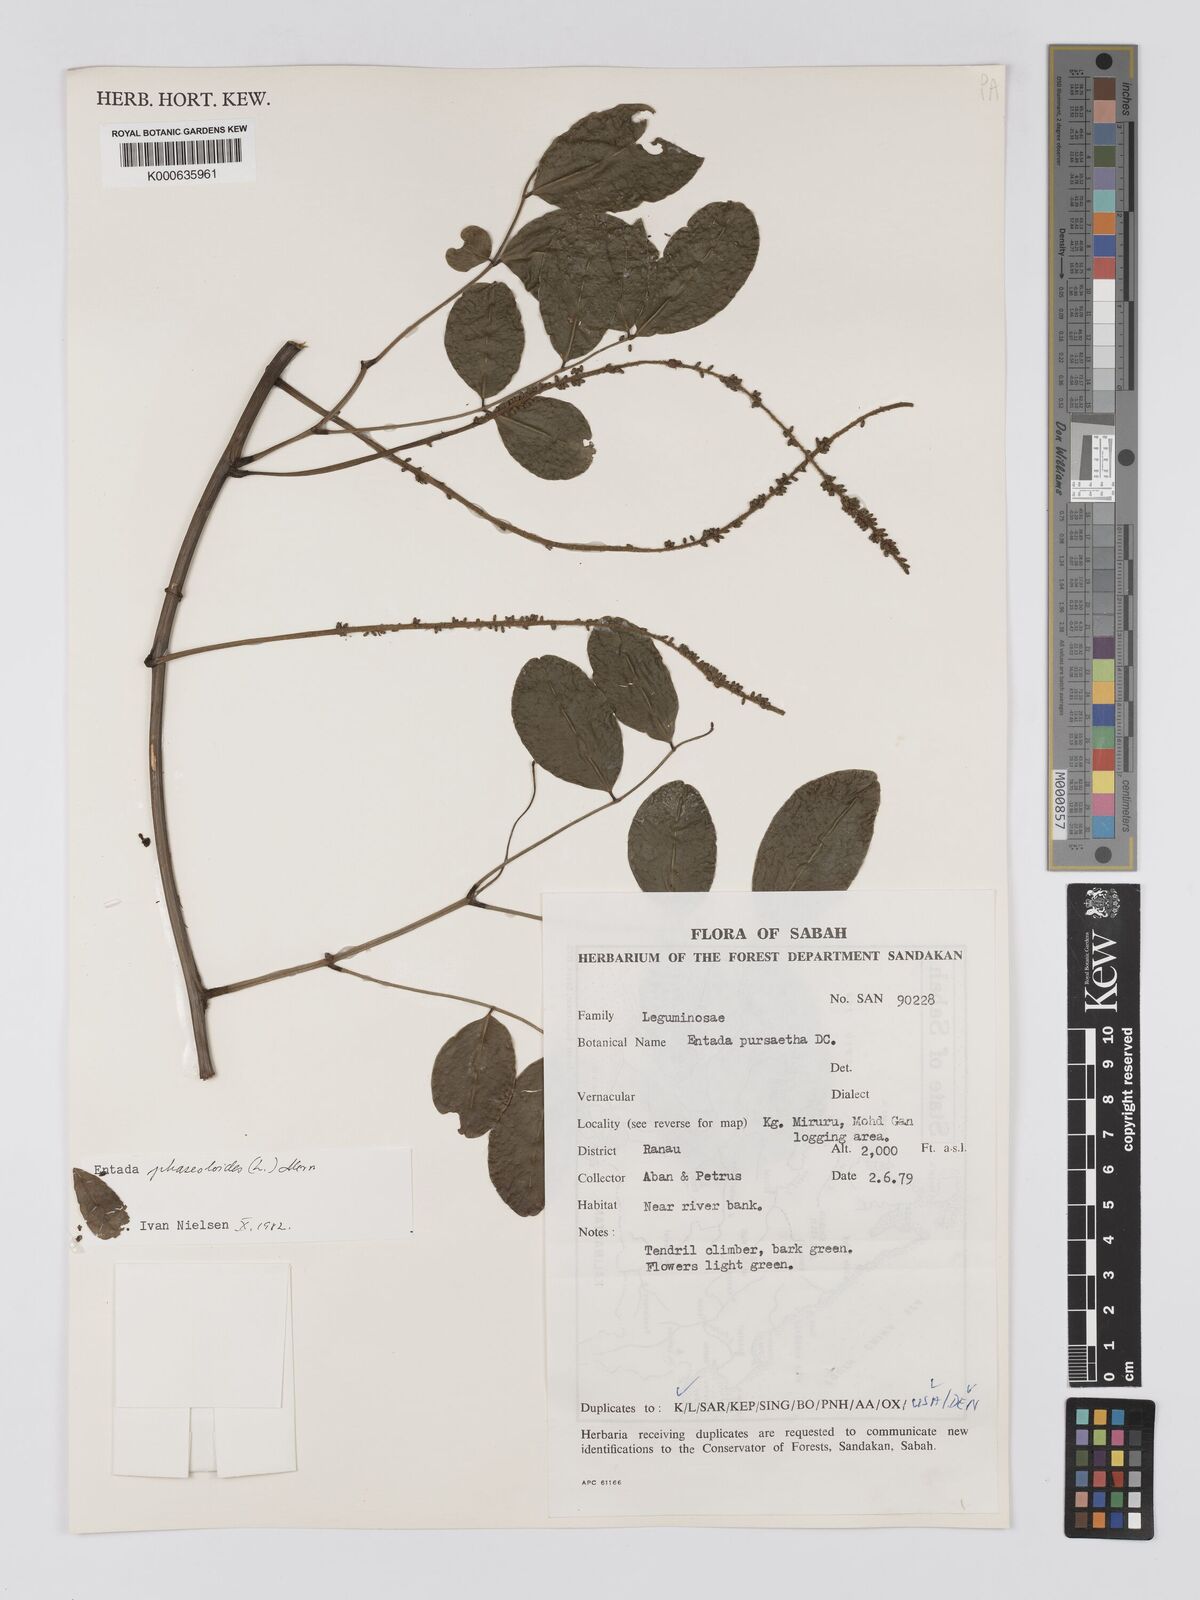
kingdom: Plantae
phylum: Tracheophyta
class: Magnoliopsida
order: Fabales
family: Fabaceae
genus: Entada
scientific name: Entada phaseoloides
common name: Matchbox-bean
